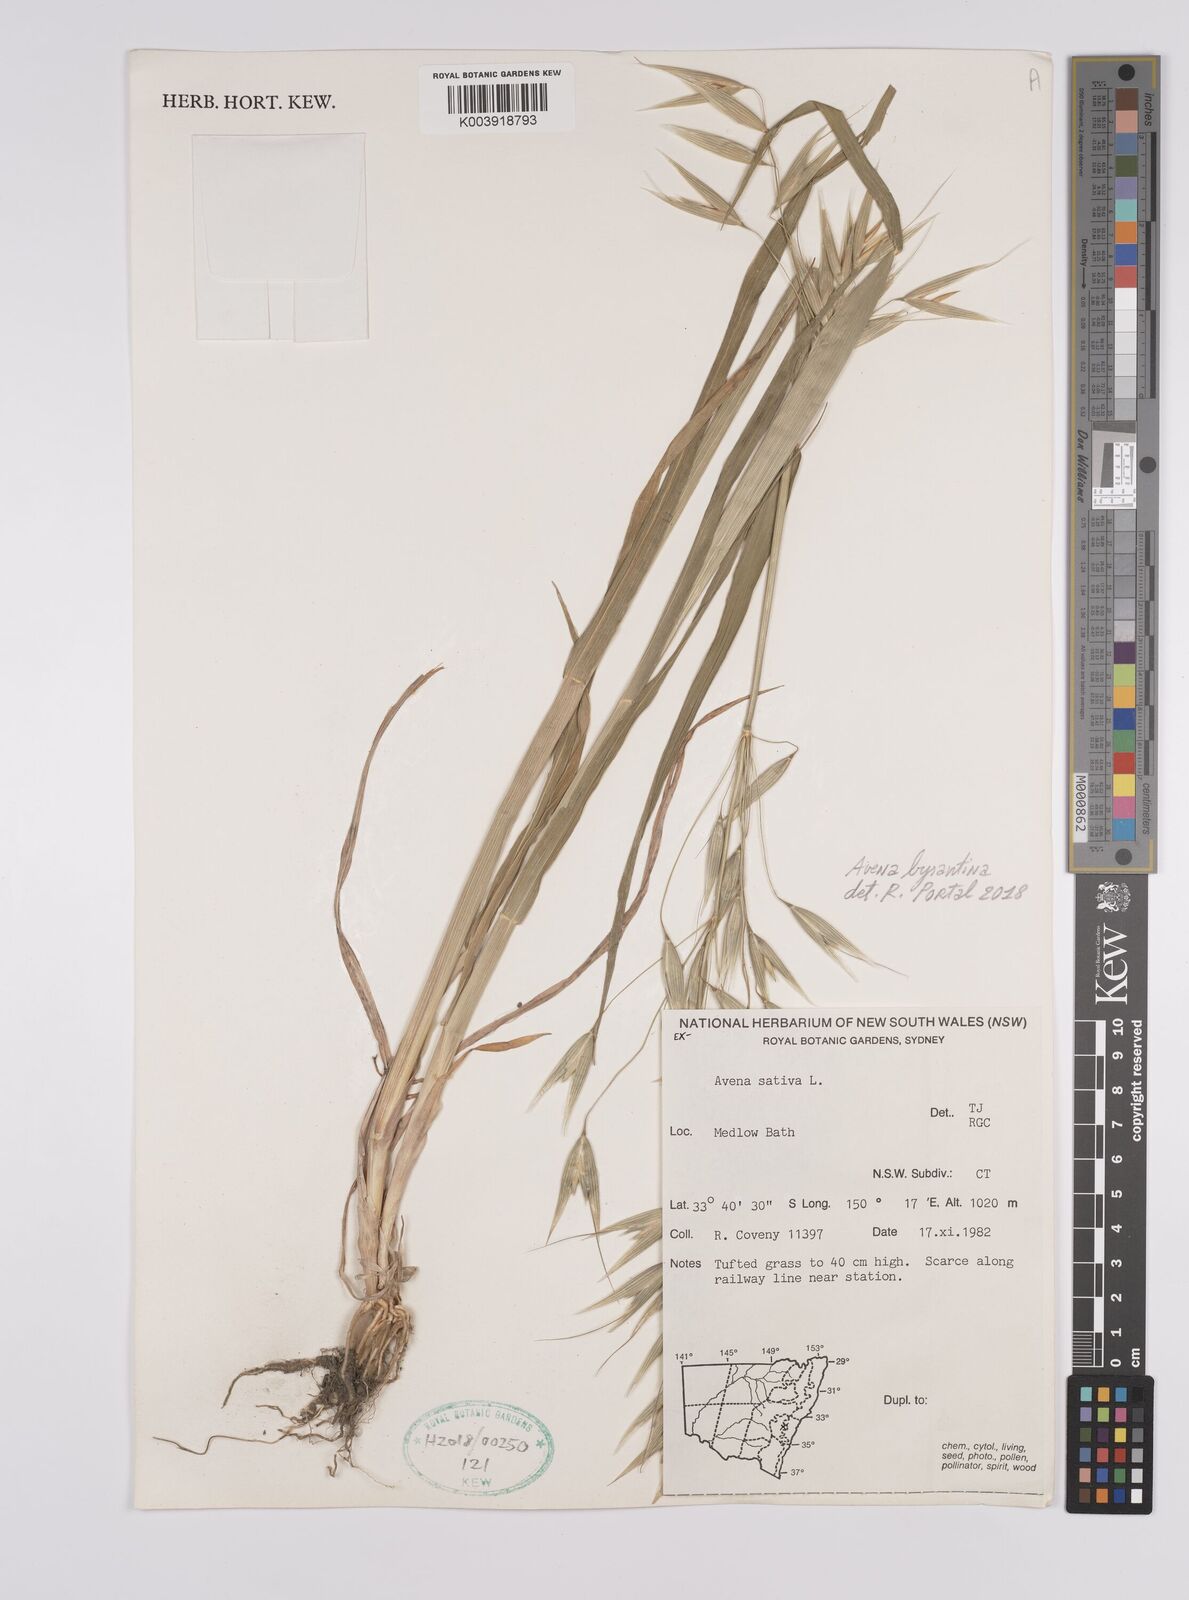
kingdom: Plantae
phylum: Tracheophyta
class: Liliopsida
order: Poales
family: Poaceae
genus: Avena
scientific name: Avena byzantina
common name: Algerian oat
